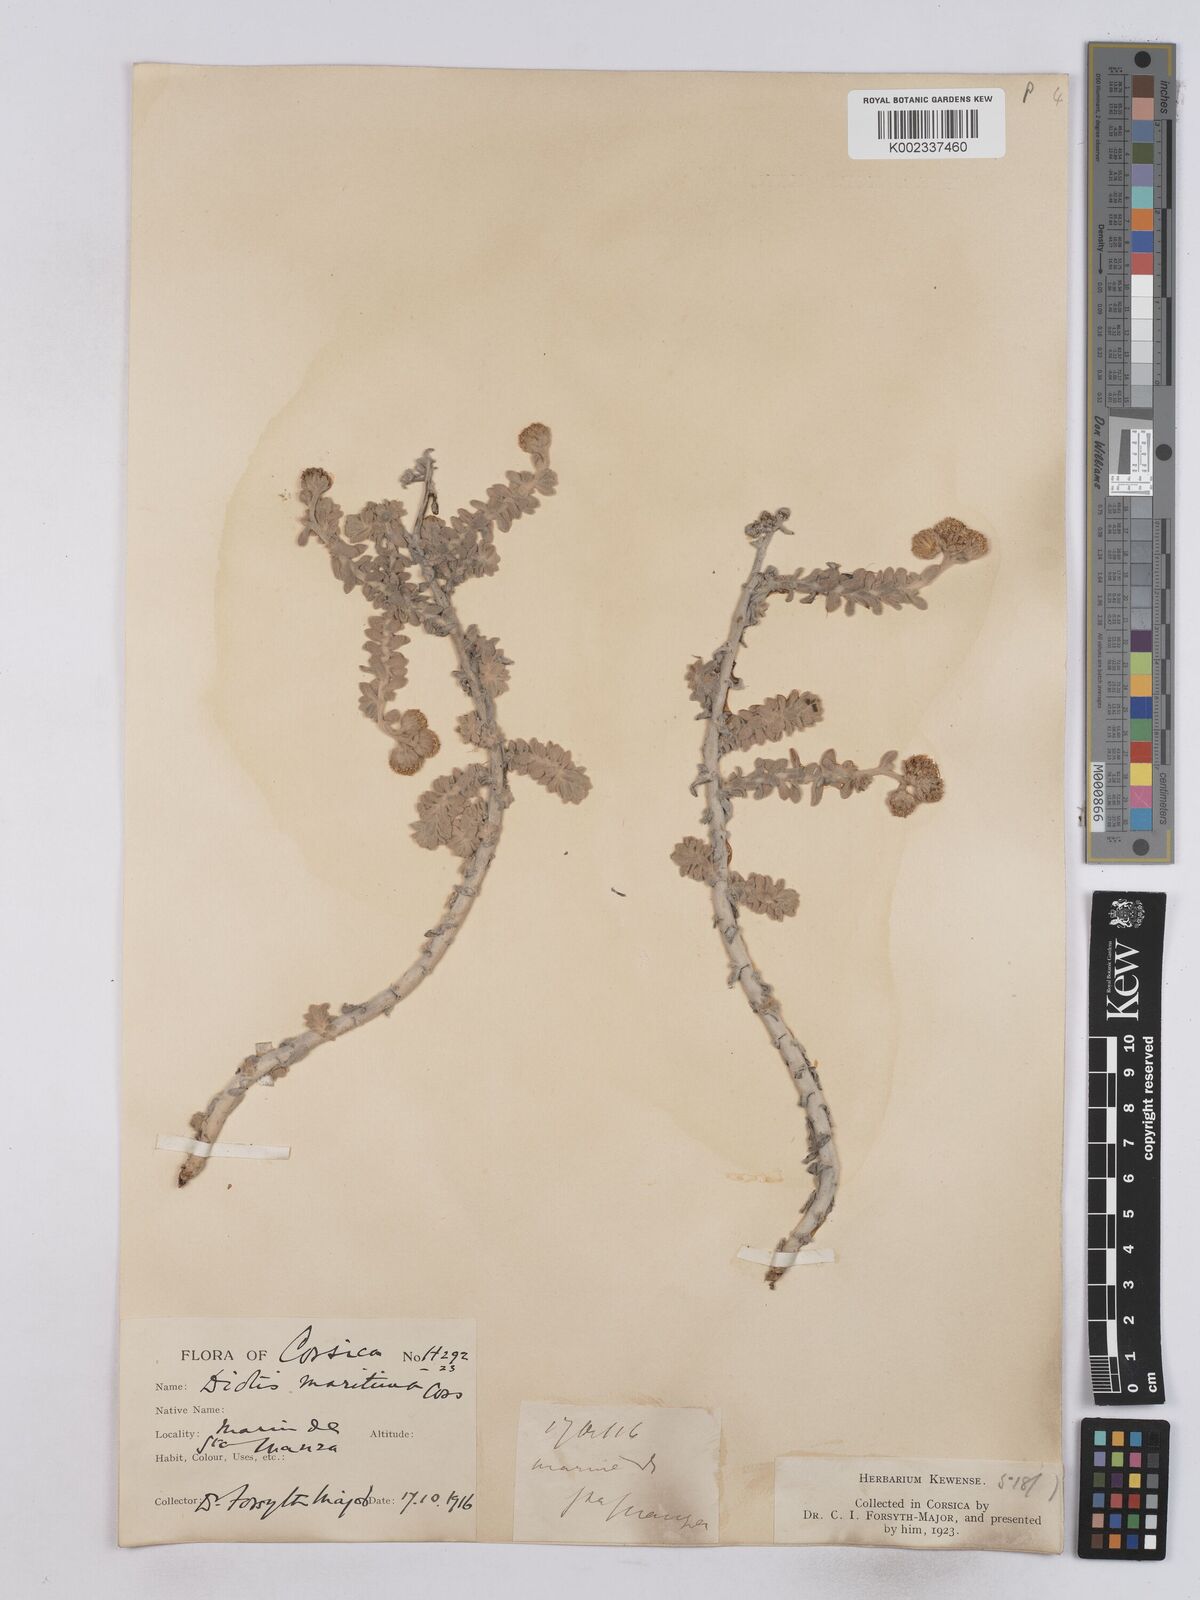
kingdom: Plantae
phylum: Tracheophyta
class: Magnoliopsida
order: Asterales
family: Asteraceae
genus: Achillea
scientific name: Achillea maritima
